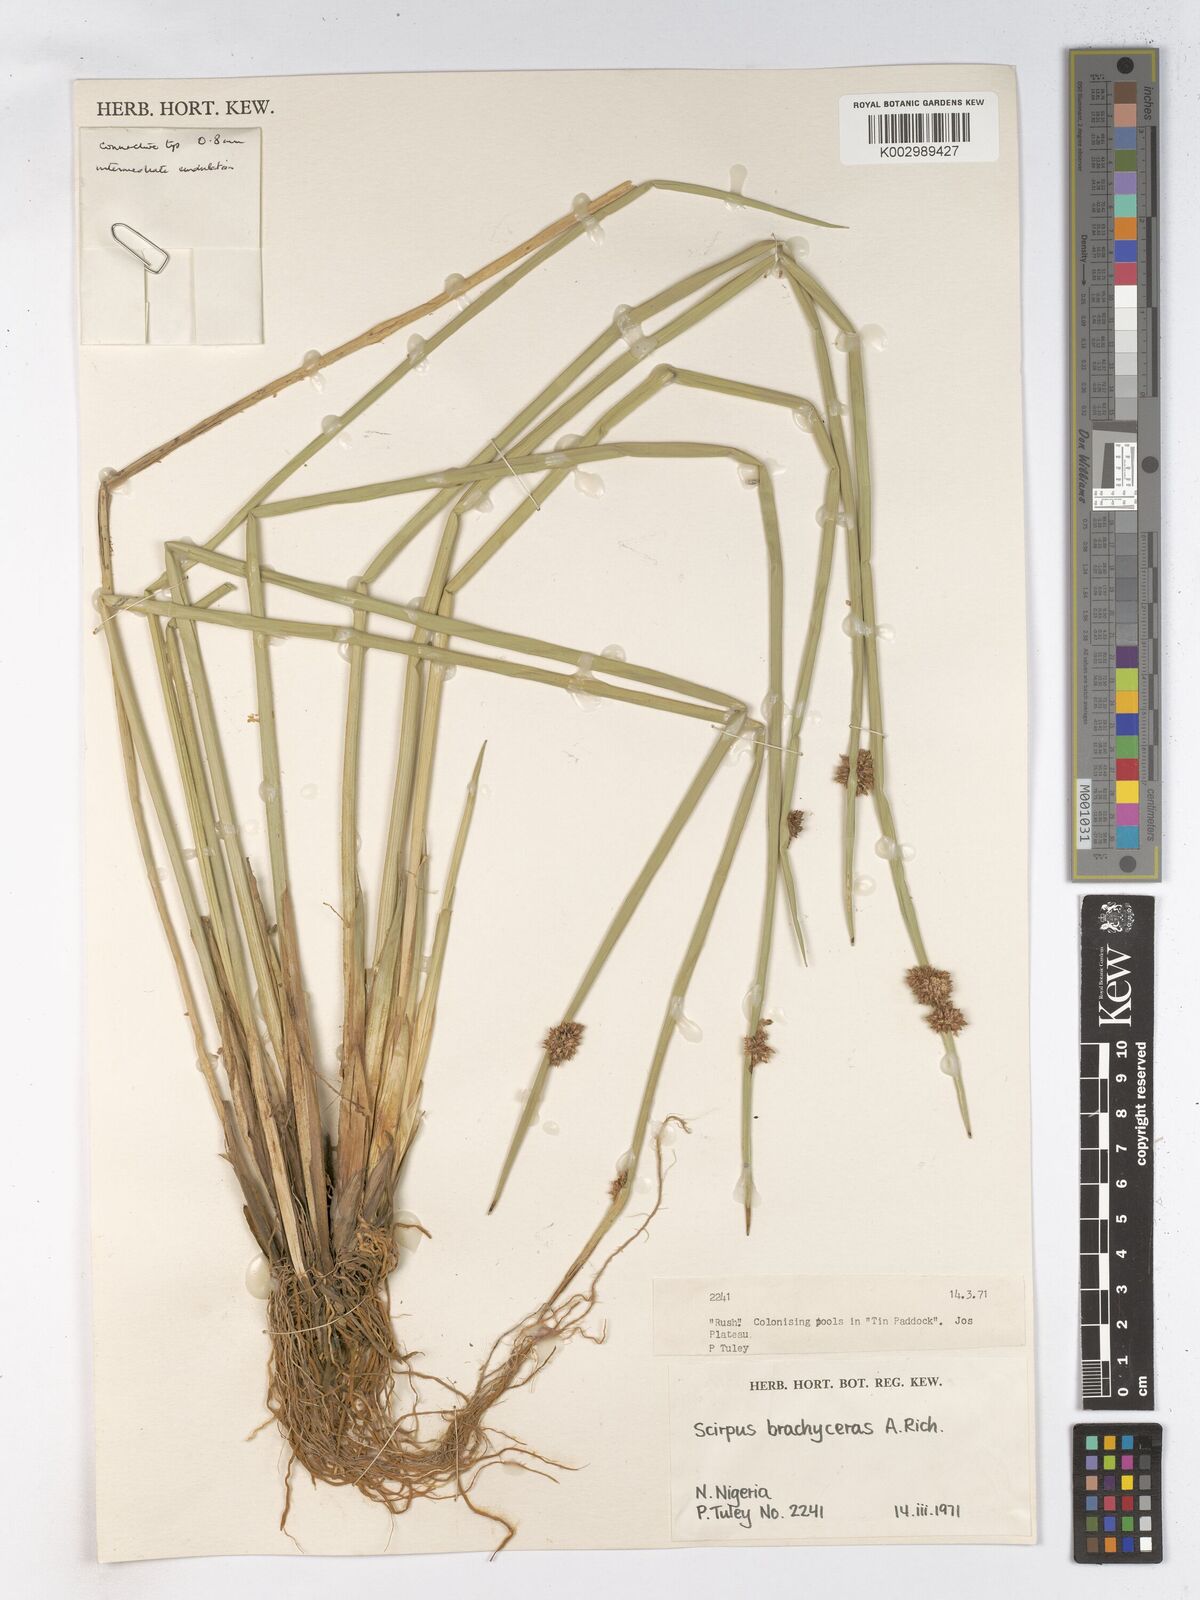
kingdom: Plantae
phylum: Tracheophyta
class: Liliopsida
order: Poales
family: Cyperaceae
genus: Schoenoplectiella
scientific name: Schoenoplectiella corymbosa
